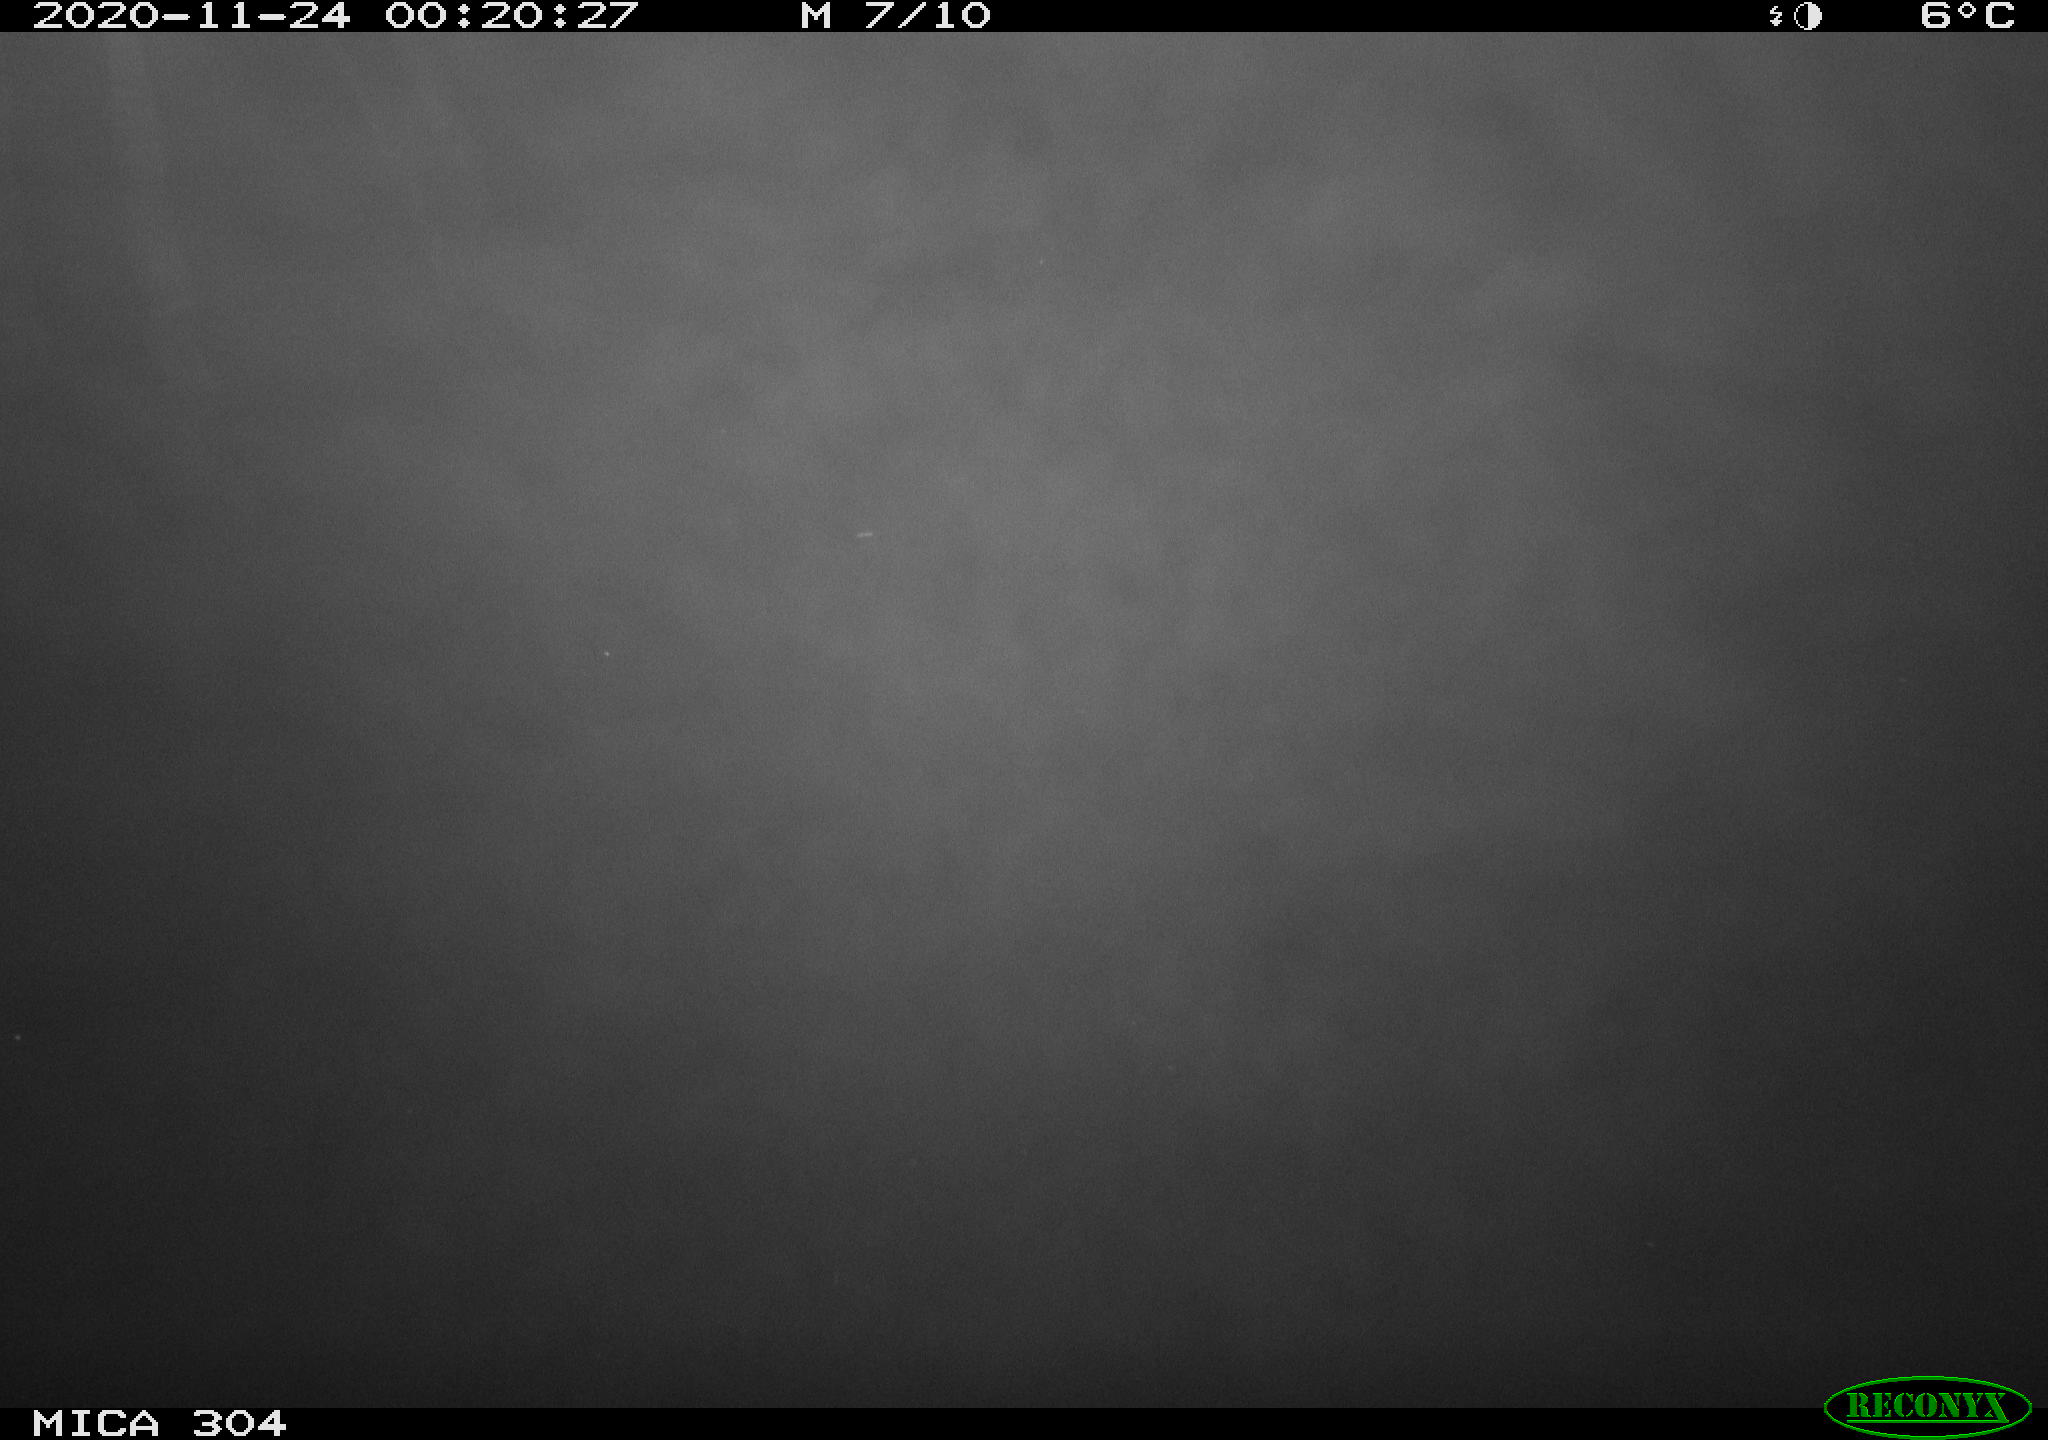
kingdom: Animalia
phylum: Chordata
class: Aves
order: Anseriformes
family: Anatidae
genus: Anas
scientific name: Anas platyrhynchos
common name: Mallard
